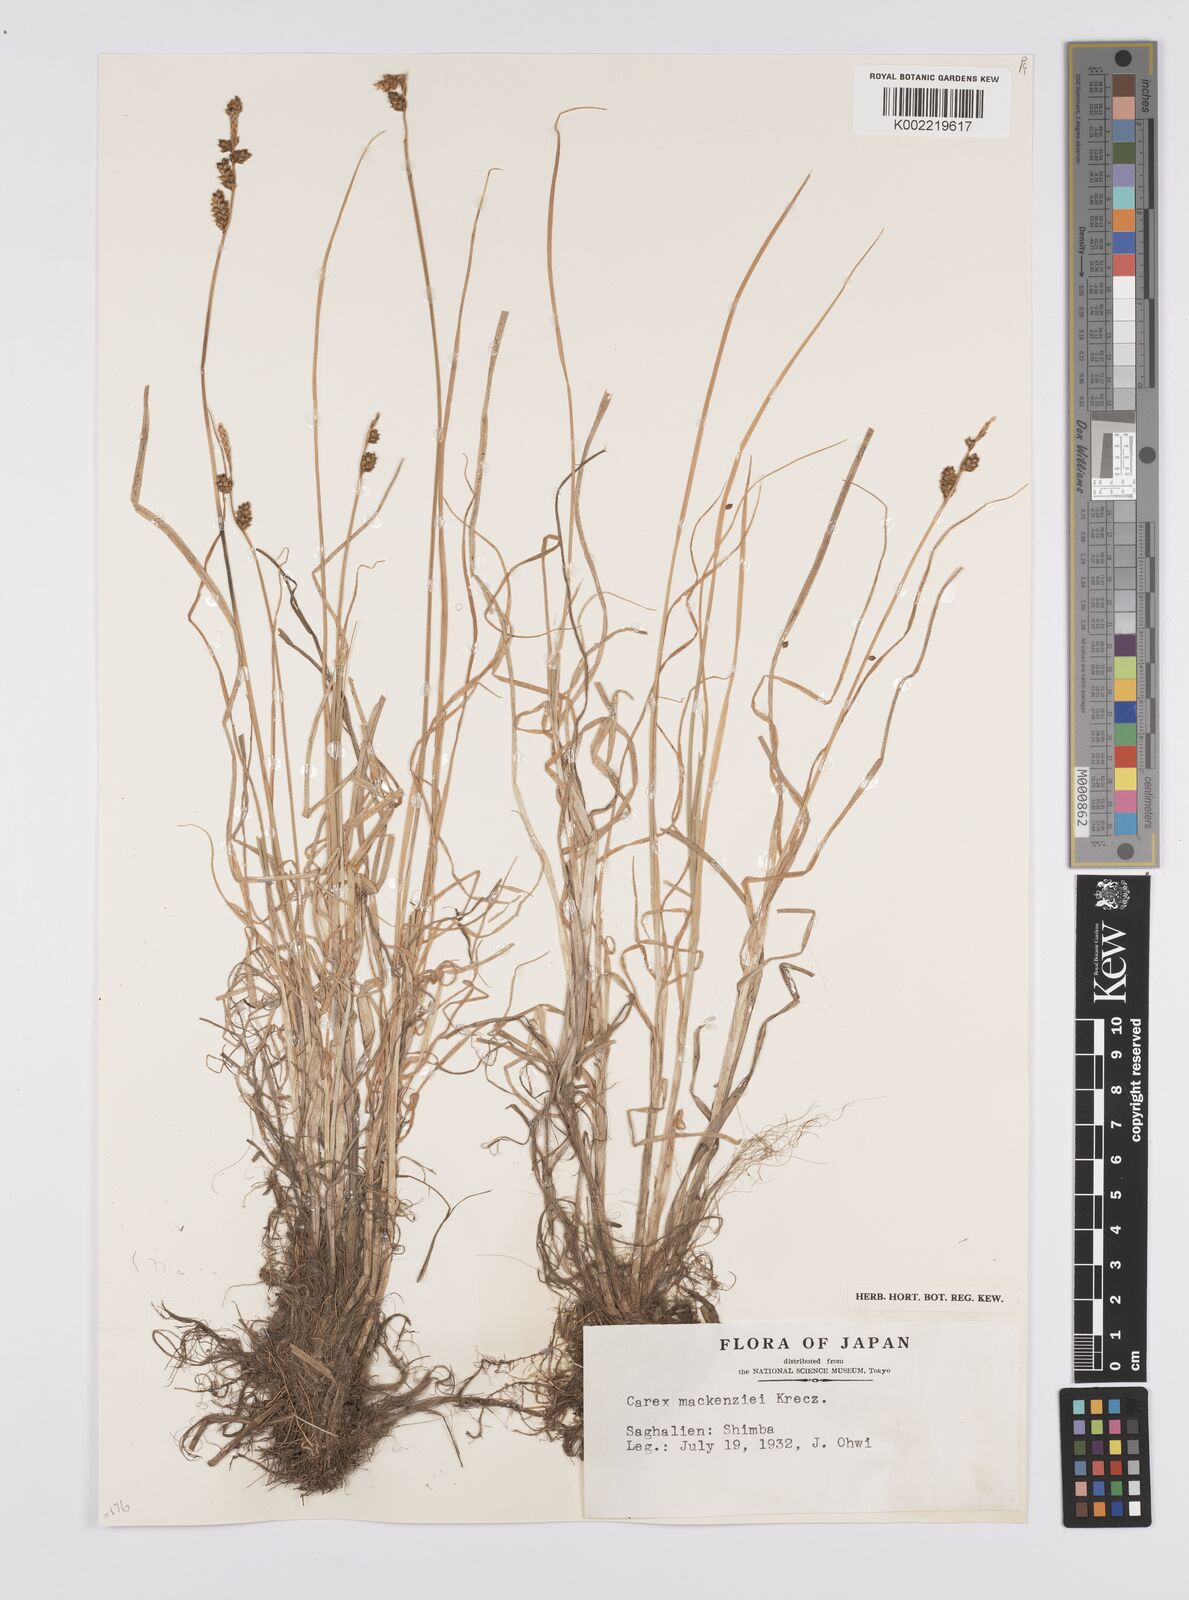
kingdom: Plantae
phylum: Tracheophyta
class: Liliopsida
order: Poales
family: Cyperaceae
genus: Carex
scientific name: Carex mackenziei
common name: Mackenzie's sedge
